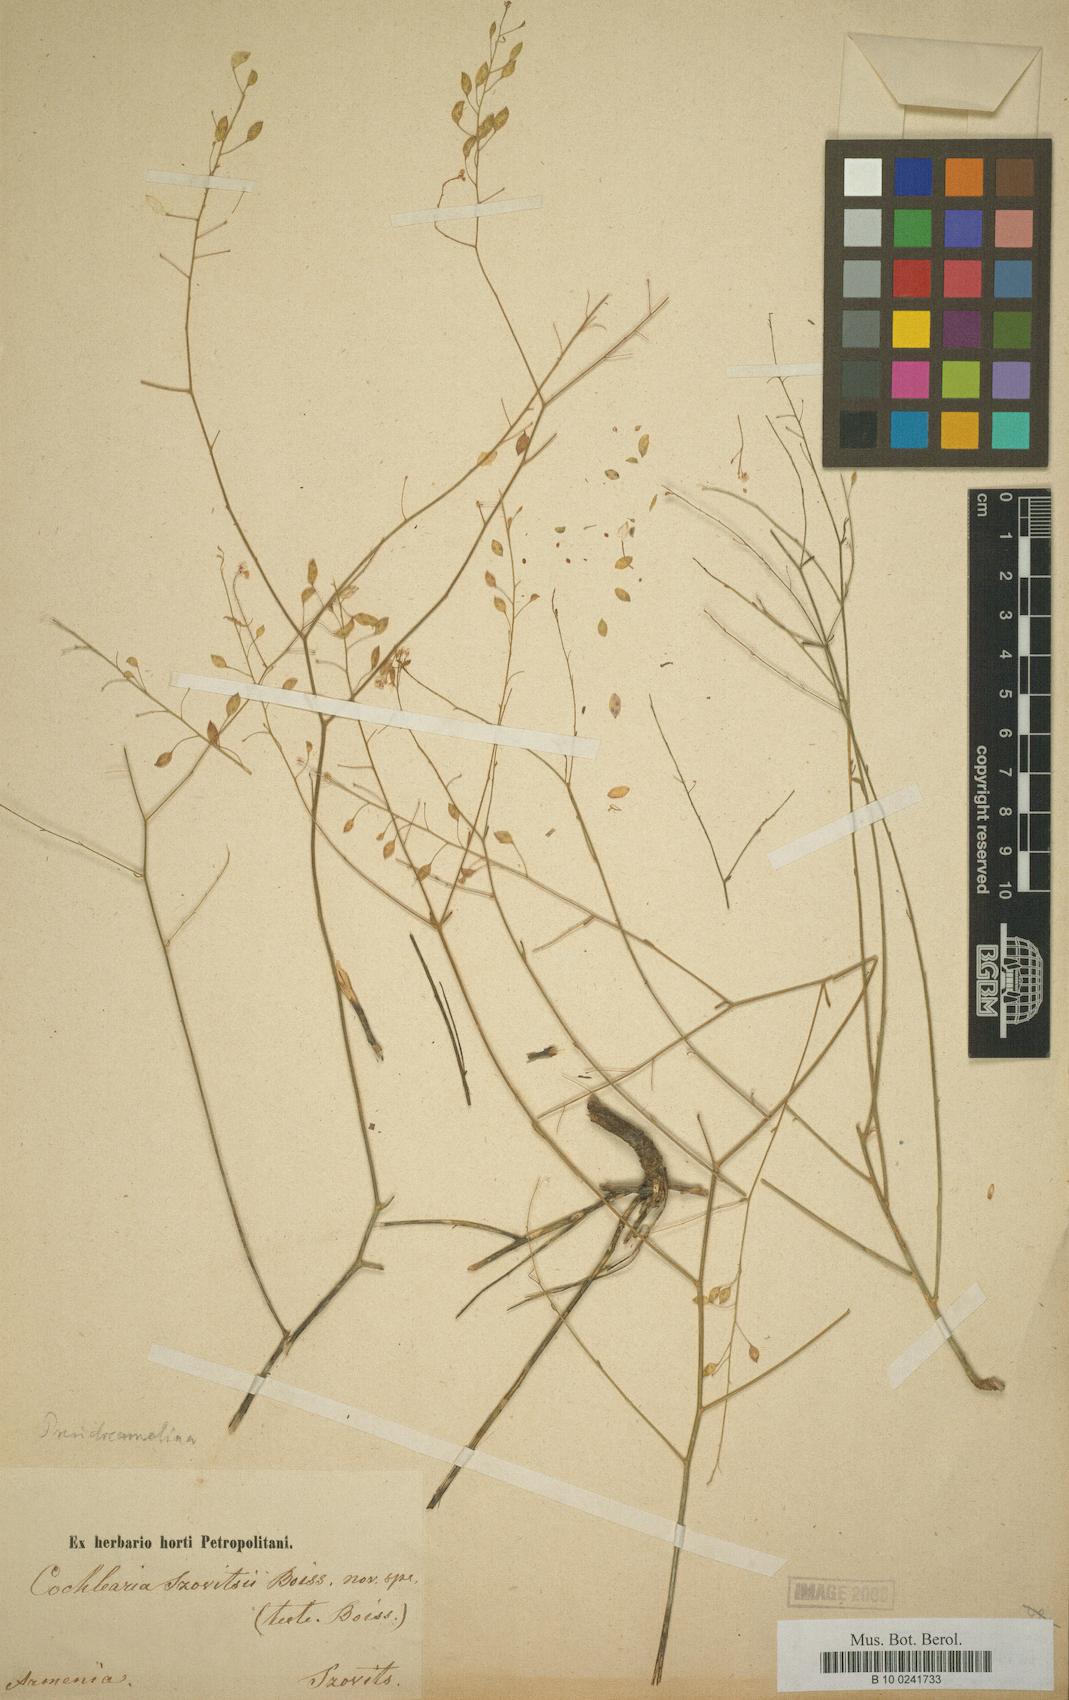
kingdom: Plantae
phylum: Tracheophyta
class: Magnoliopsida
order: Brassicales
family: Brassicaceae
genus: Peltariopsis
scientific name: Peltariopsis planisiliqua
